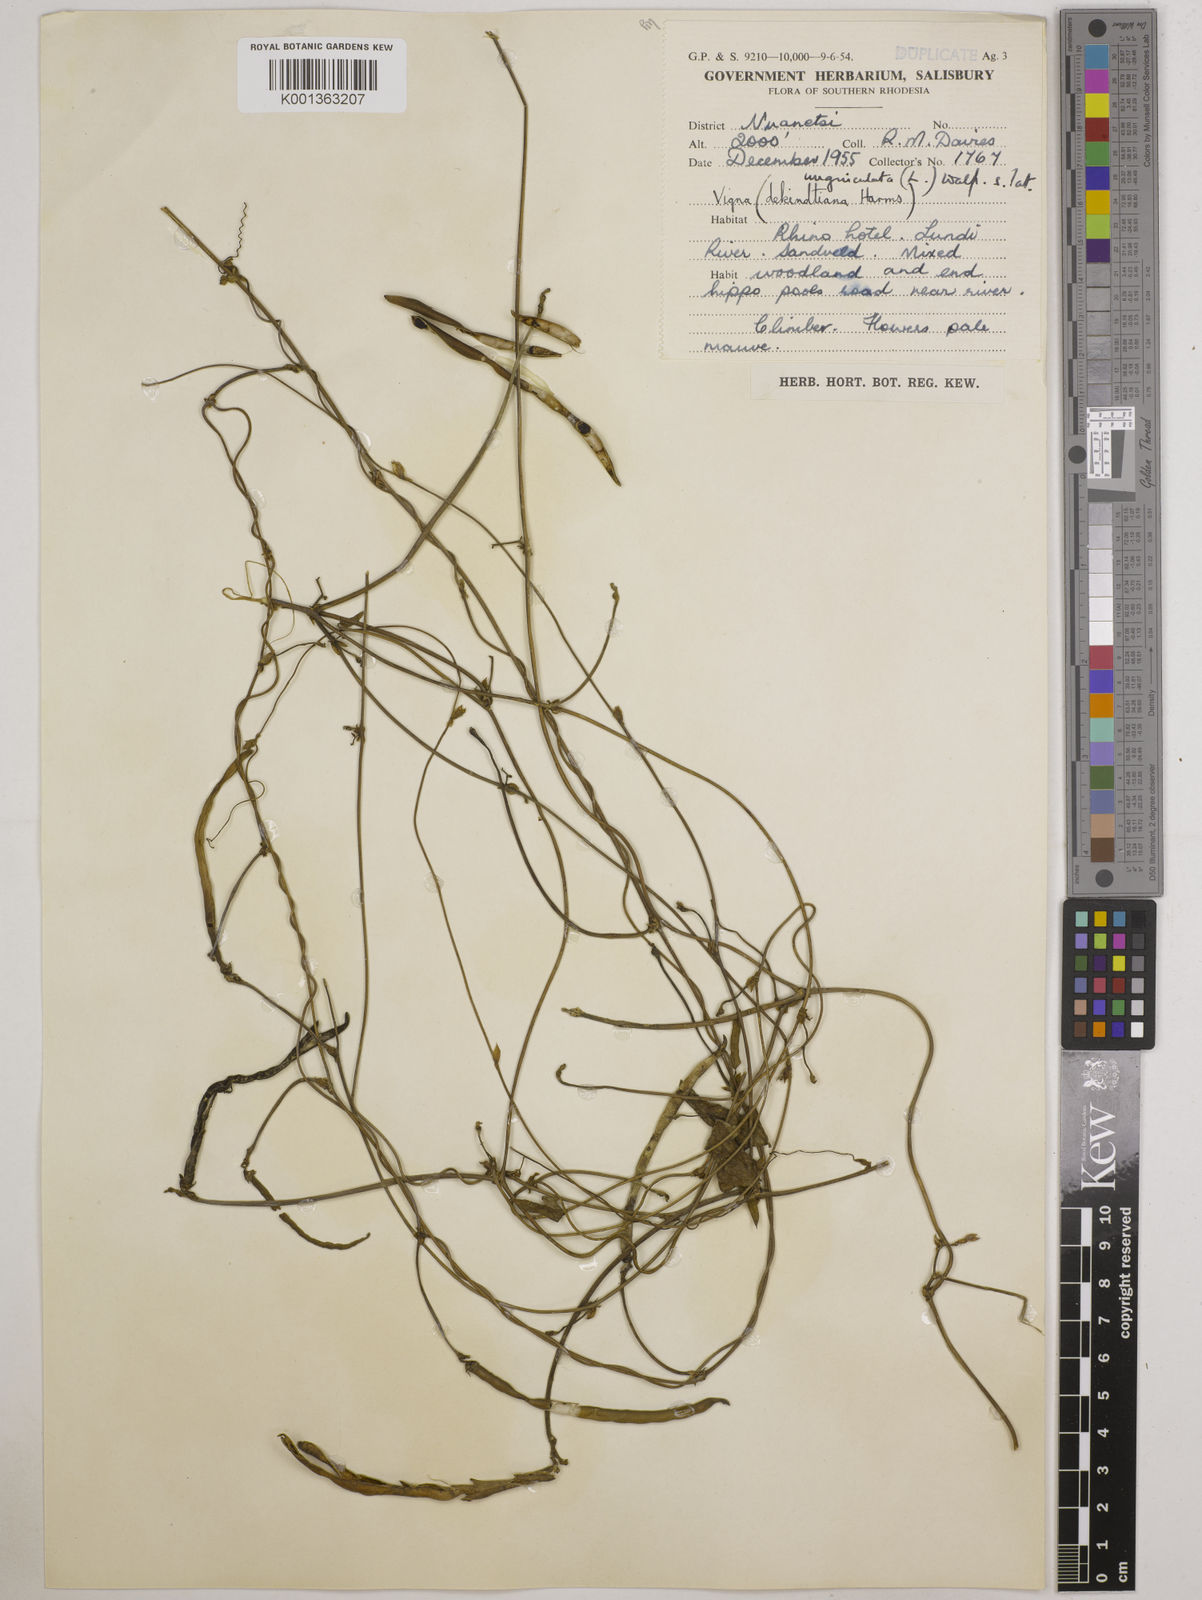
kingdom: Plantae
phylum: Tracheophyta
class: Magnoliopsida
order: Fabales
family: Fabaceae
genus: Vigna
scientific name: Vigna unguiculata
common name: Cowpea
